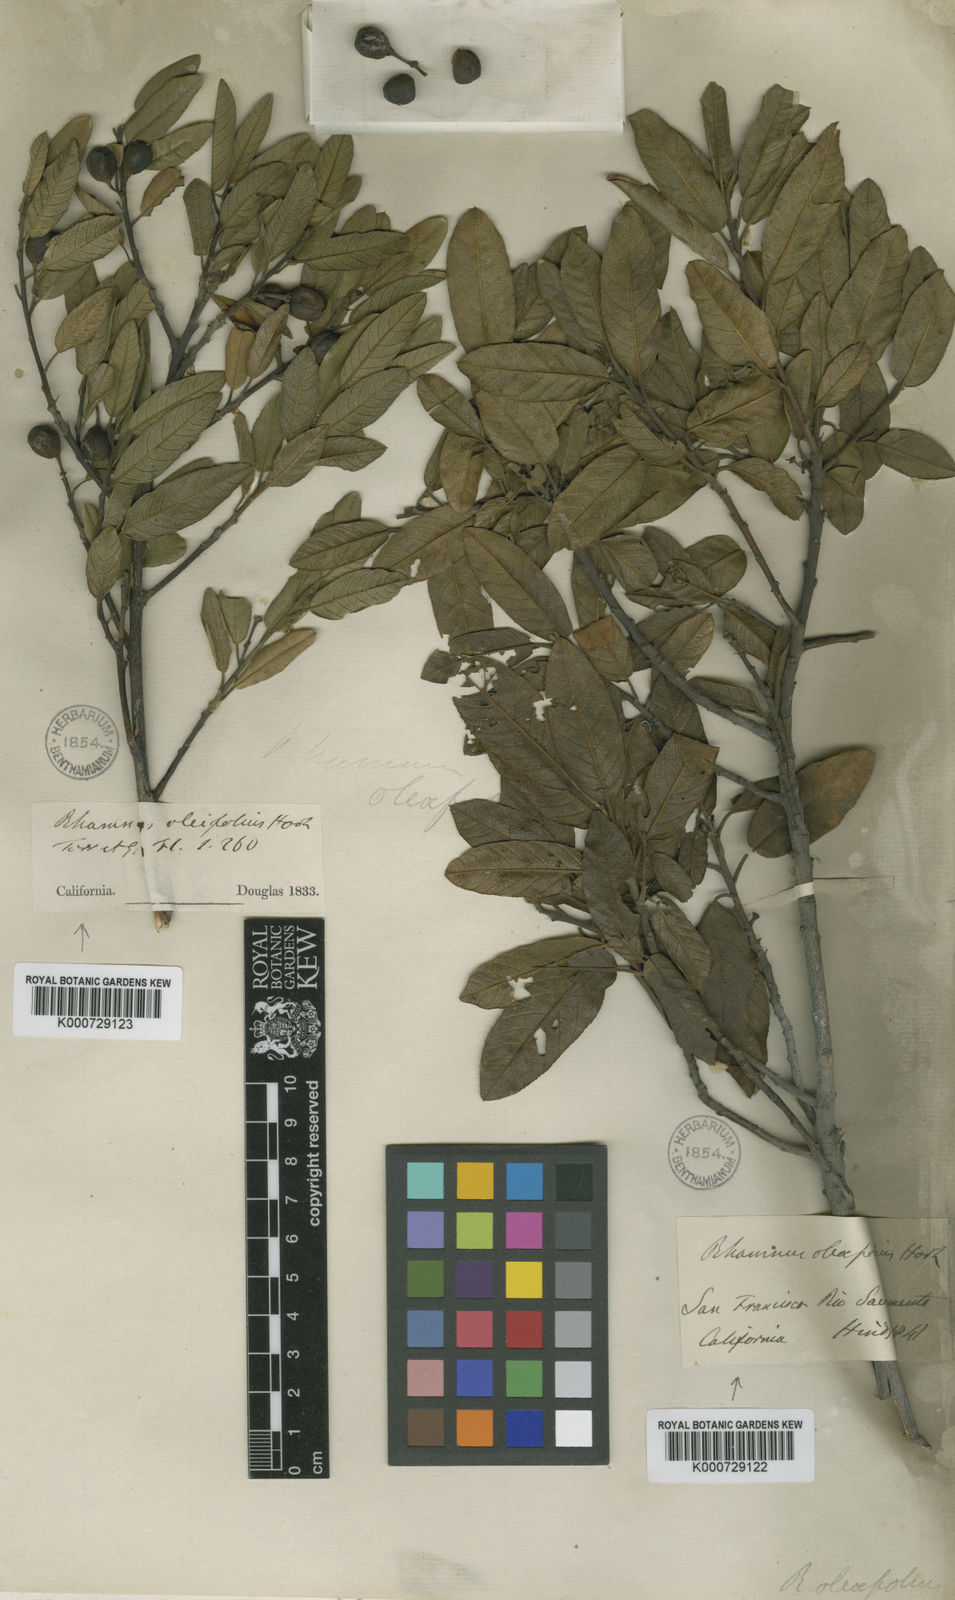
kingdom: Plantae
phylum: Tracheophyta
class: Magnoliopsida
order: Rosales
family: Rhamnaceae
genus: Frangula
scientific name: Frangula rubra
